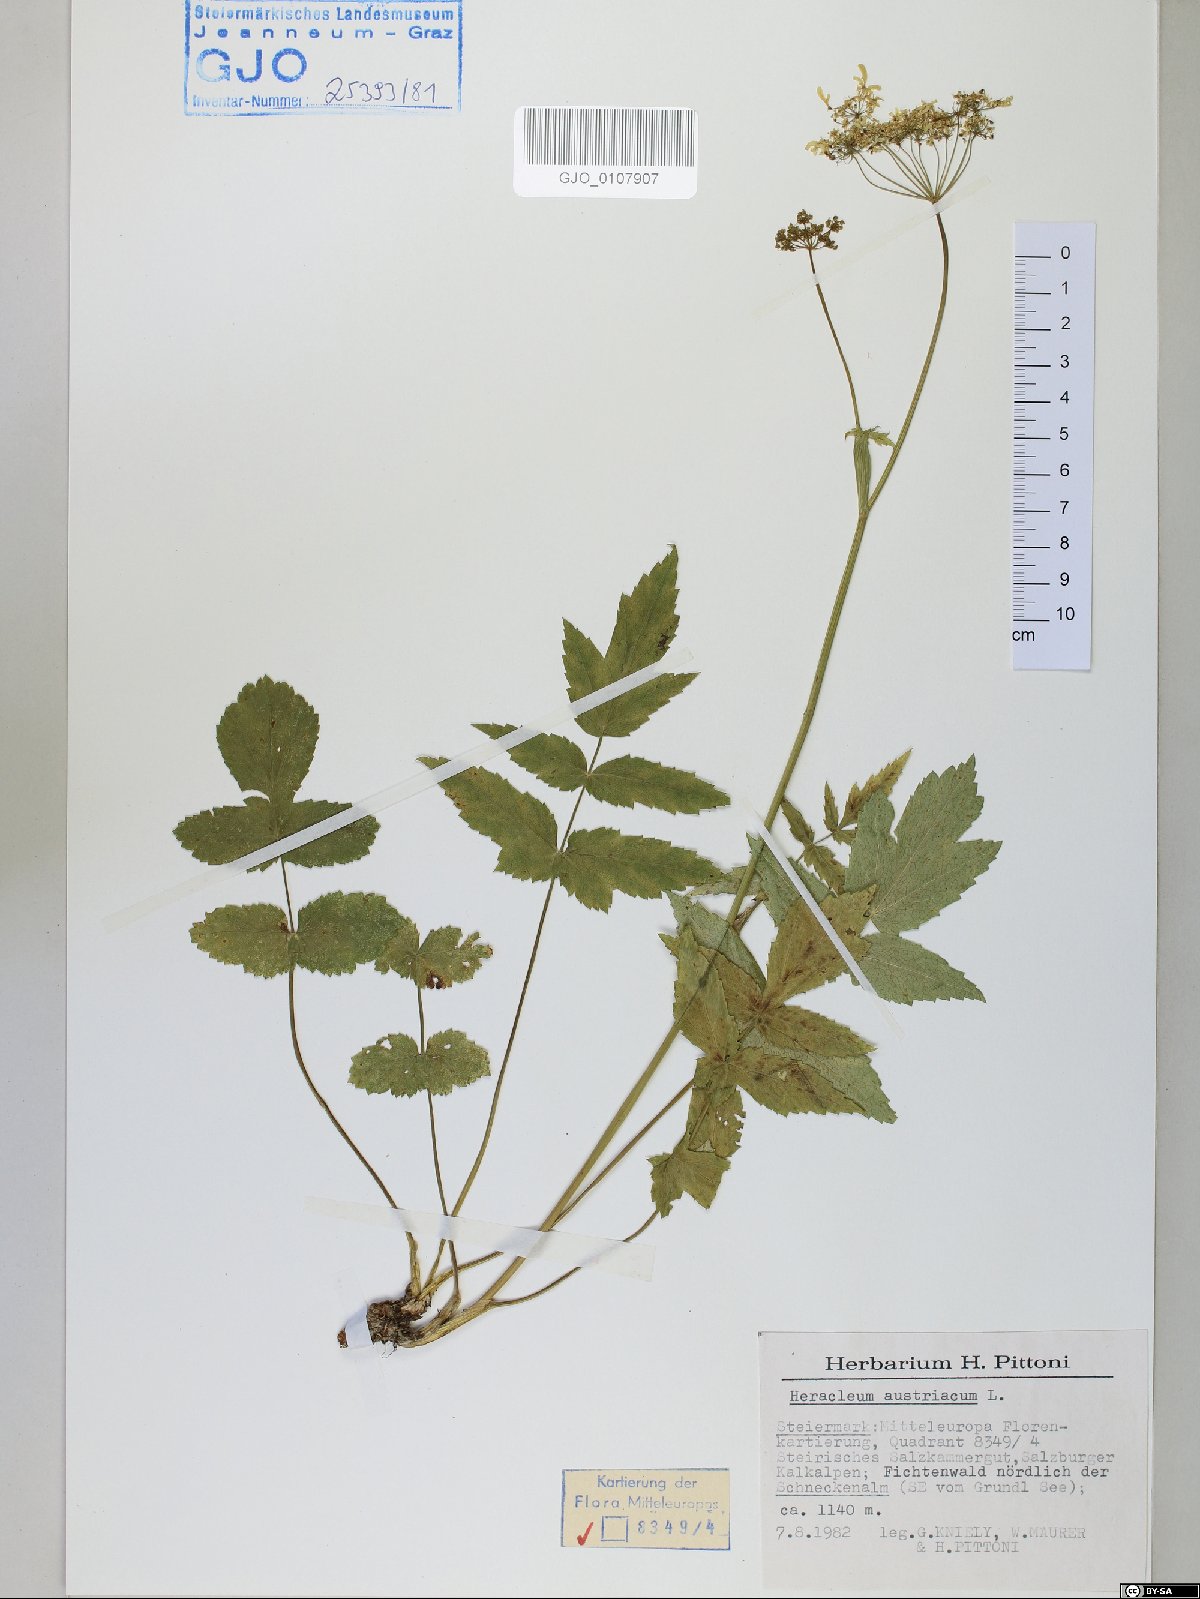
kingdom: Plantae
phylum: Tracheophyta
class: Magnoliopsida
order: Apiales
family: Apiaceae
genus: Heracleum
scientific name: Heracleum austriacum
